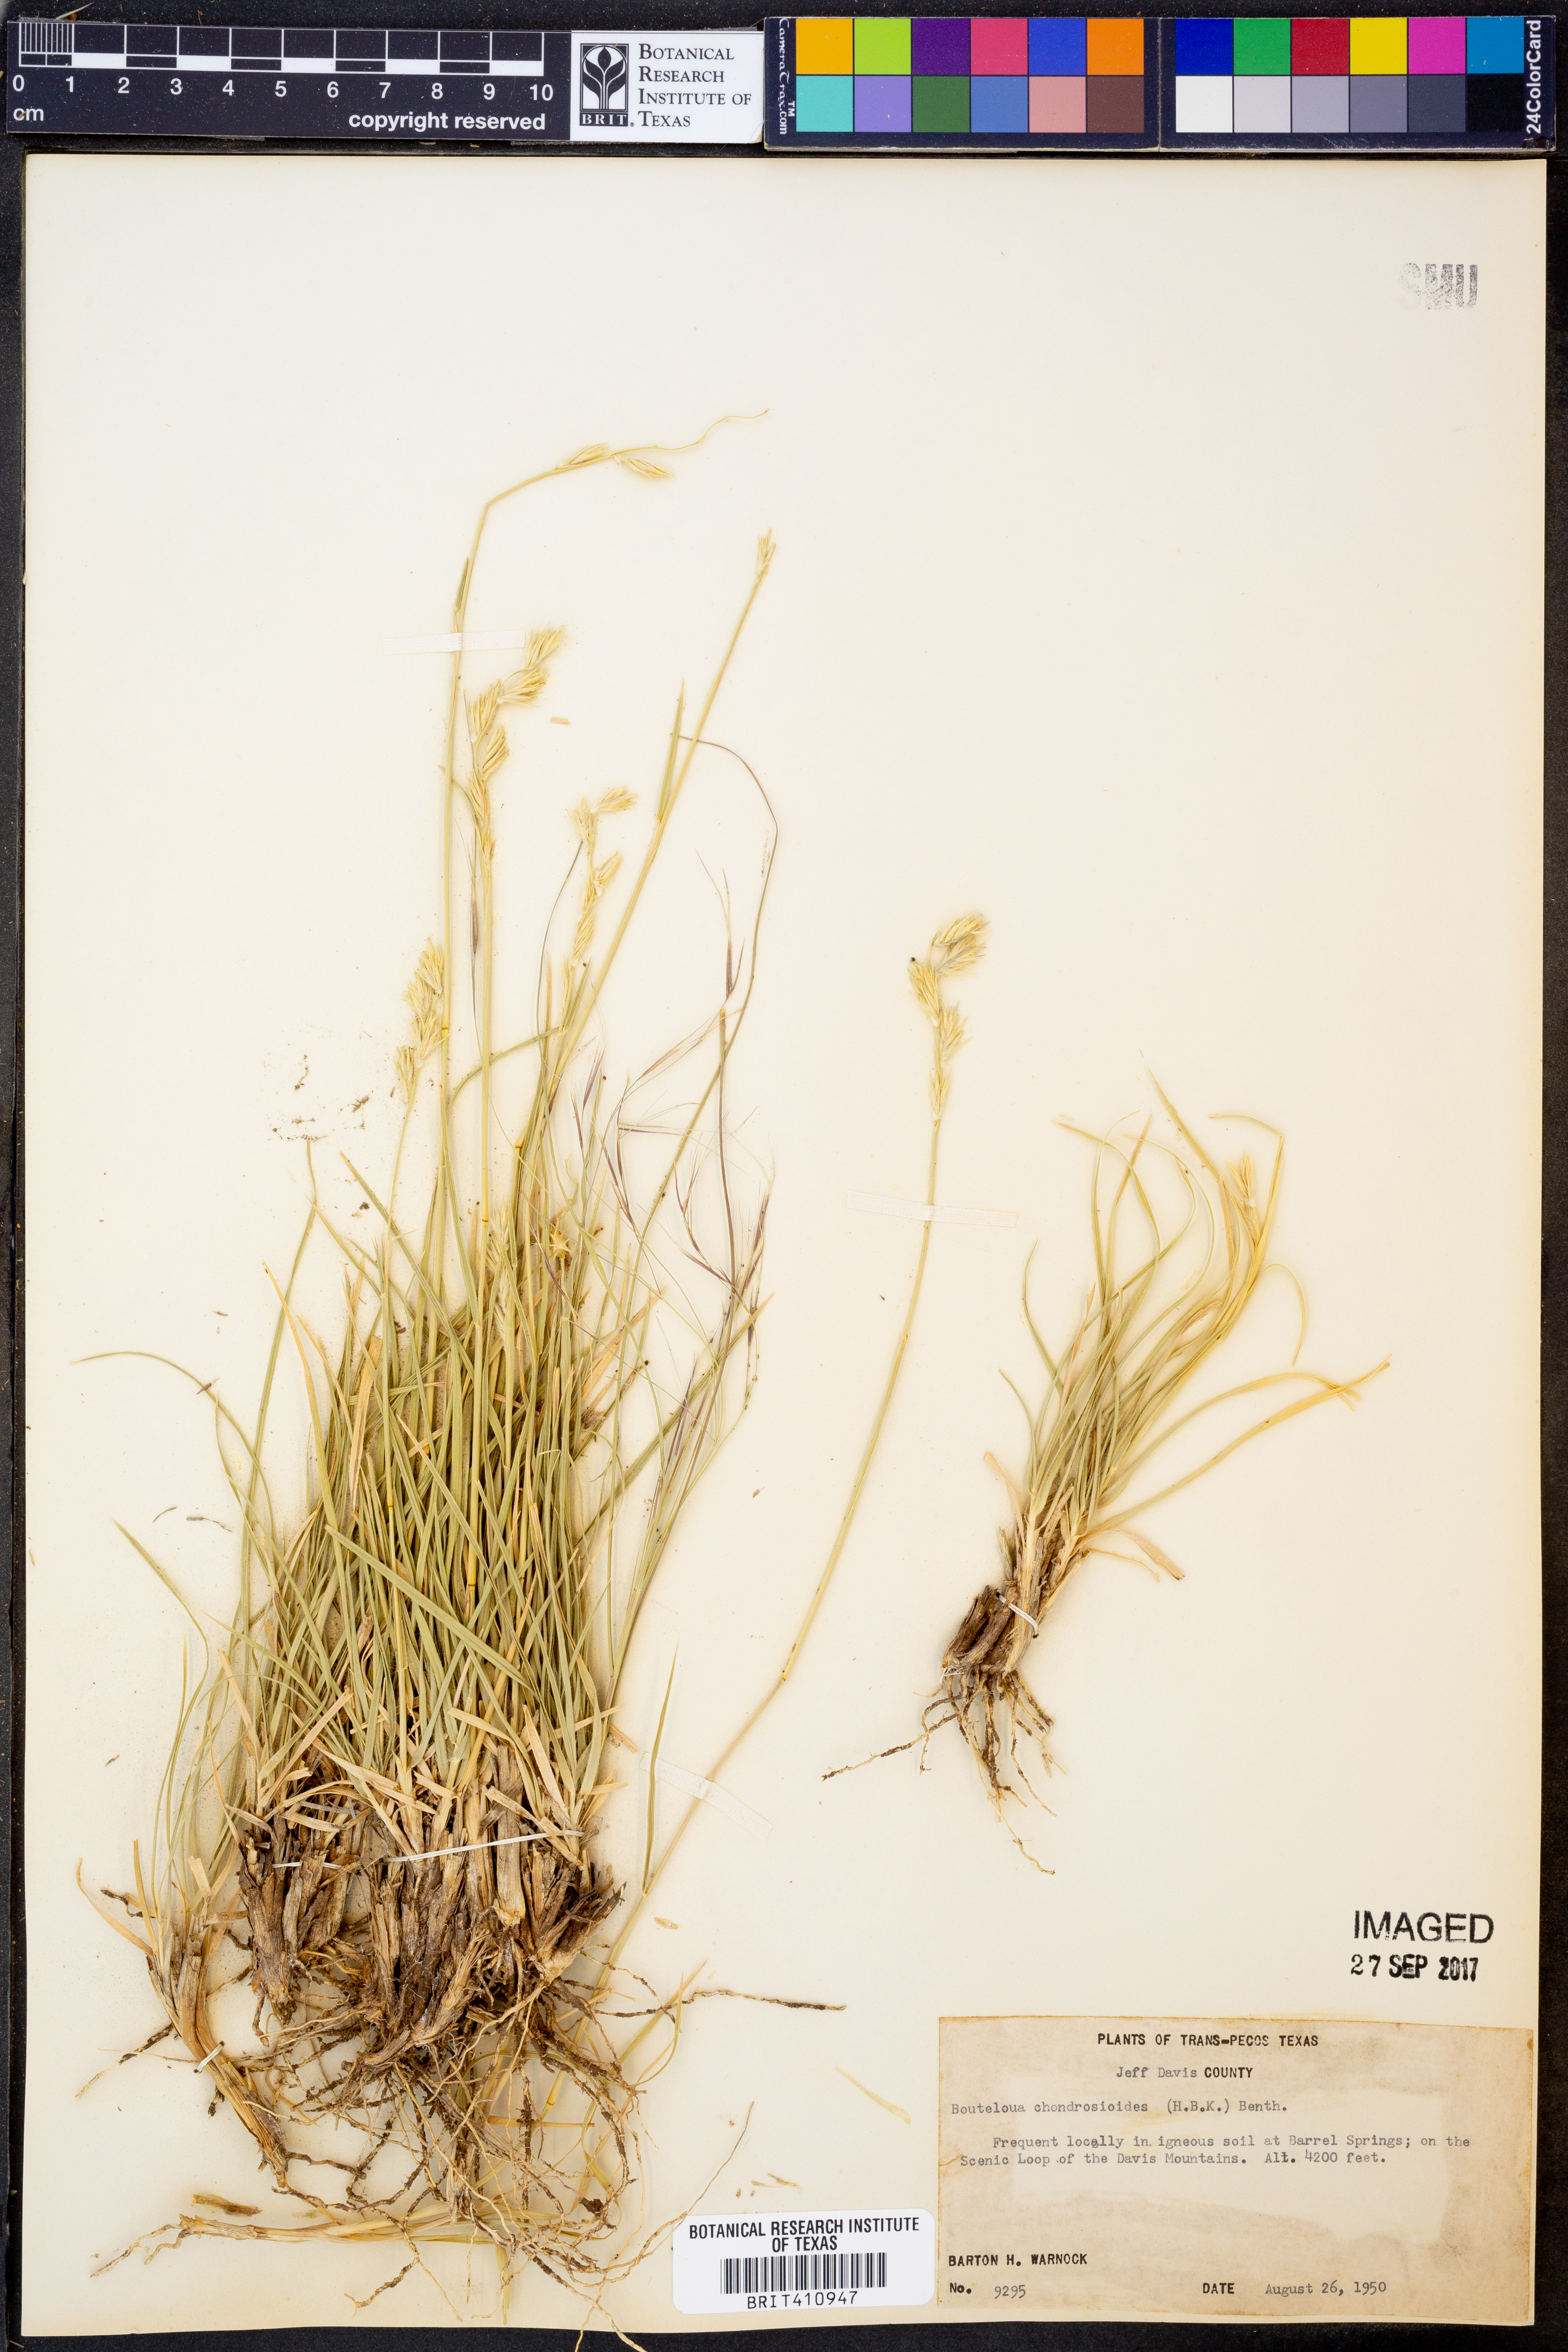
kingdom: Plantae
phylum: Tracheophyta
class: Liliopsida
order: Poales
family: Poaceae
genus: Bouteloua
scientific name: Bouteloua chondrosioides
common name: Sprucetop grama
